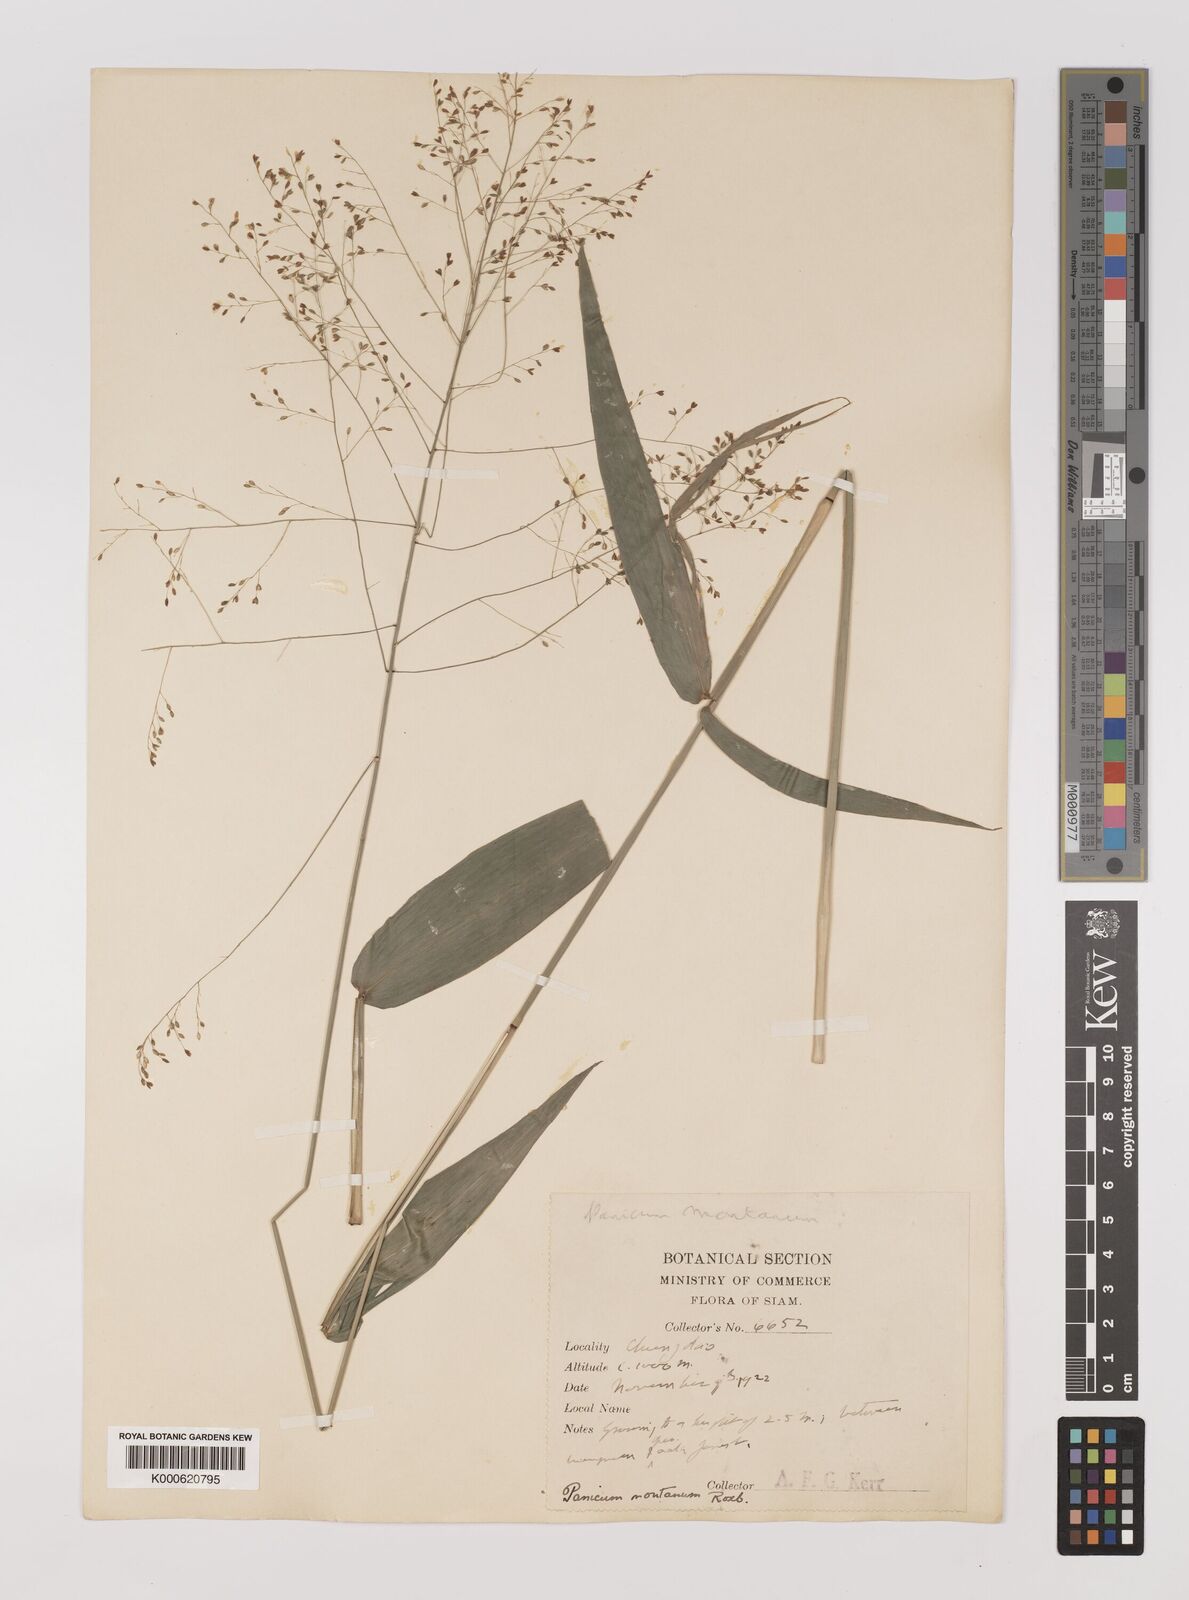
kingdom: Plantae
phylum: Tracheophyta
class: Liliopsida
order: Poales
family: Poaceae
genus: Panicum
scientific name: Panicum notatum
